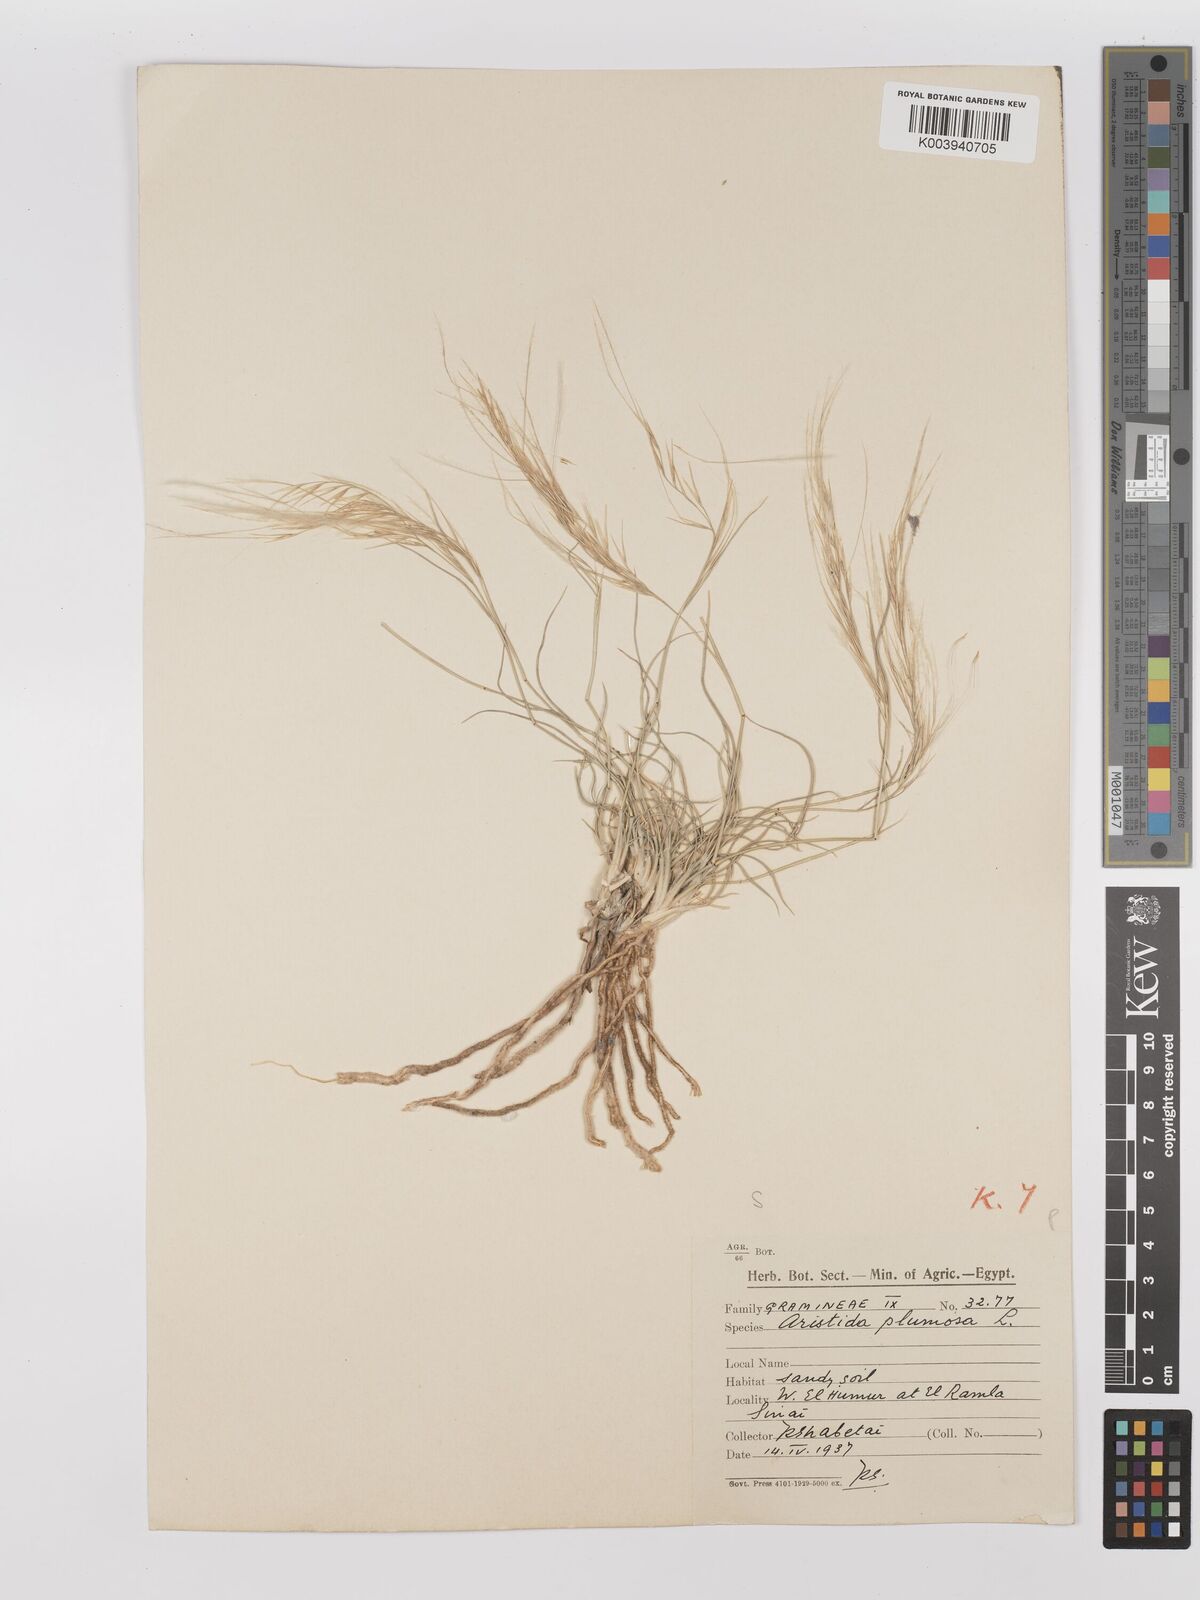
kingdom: Plantae
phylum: Tracheophyta
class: Liliopsida
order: Poales
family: Poaceae
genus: Stipagrostis
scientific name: Stipagrostis plumosa
